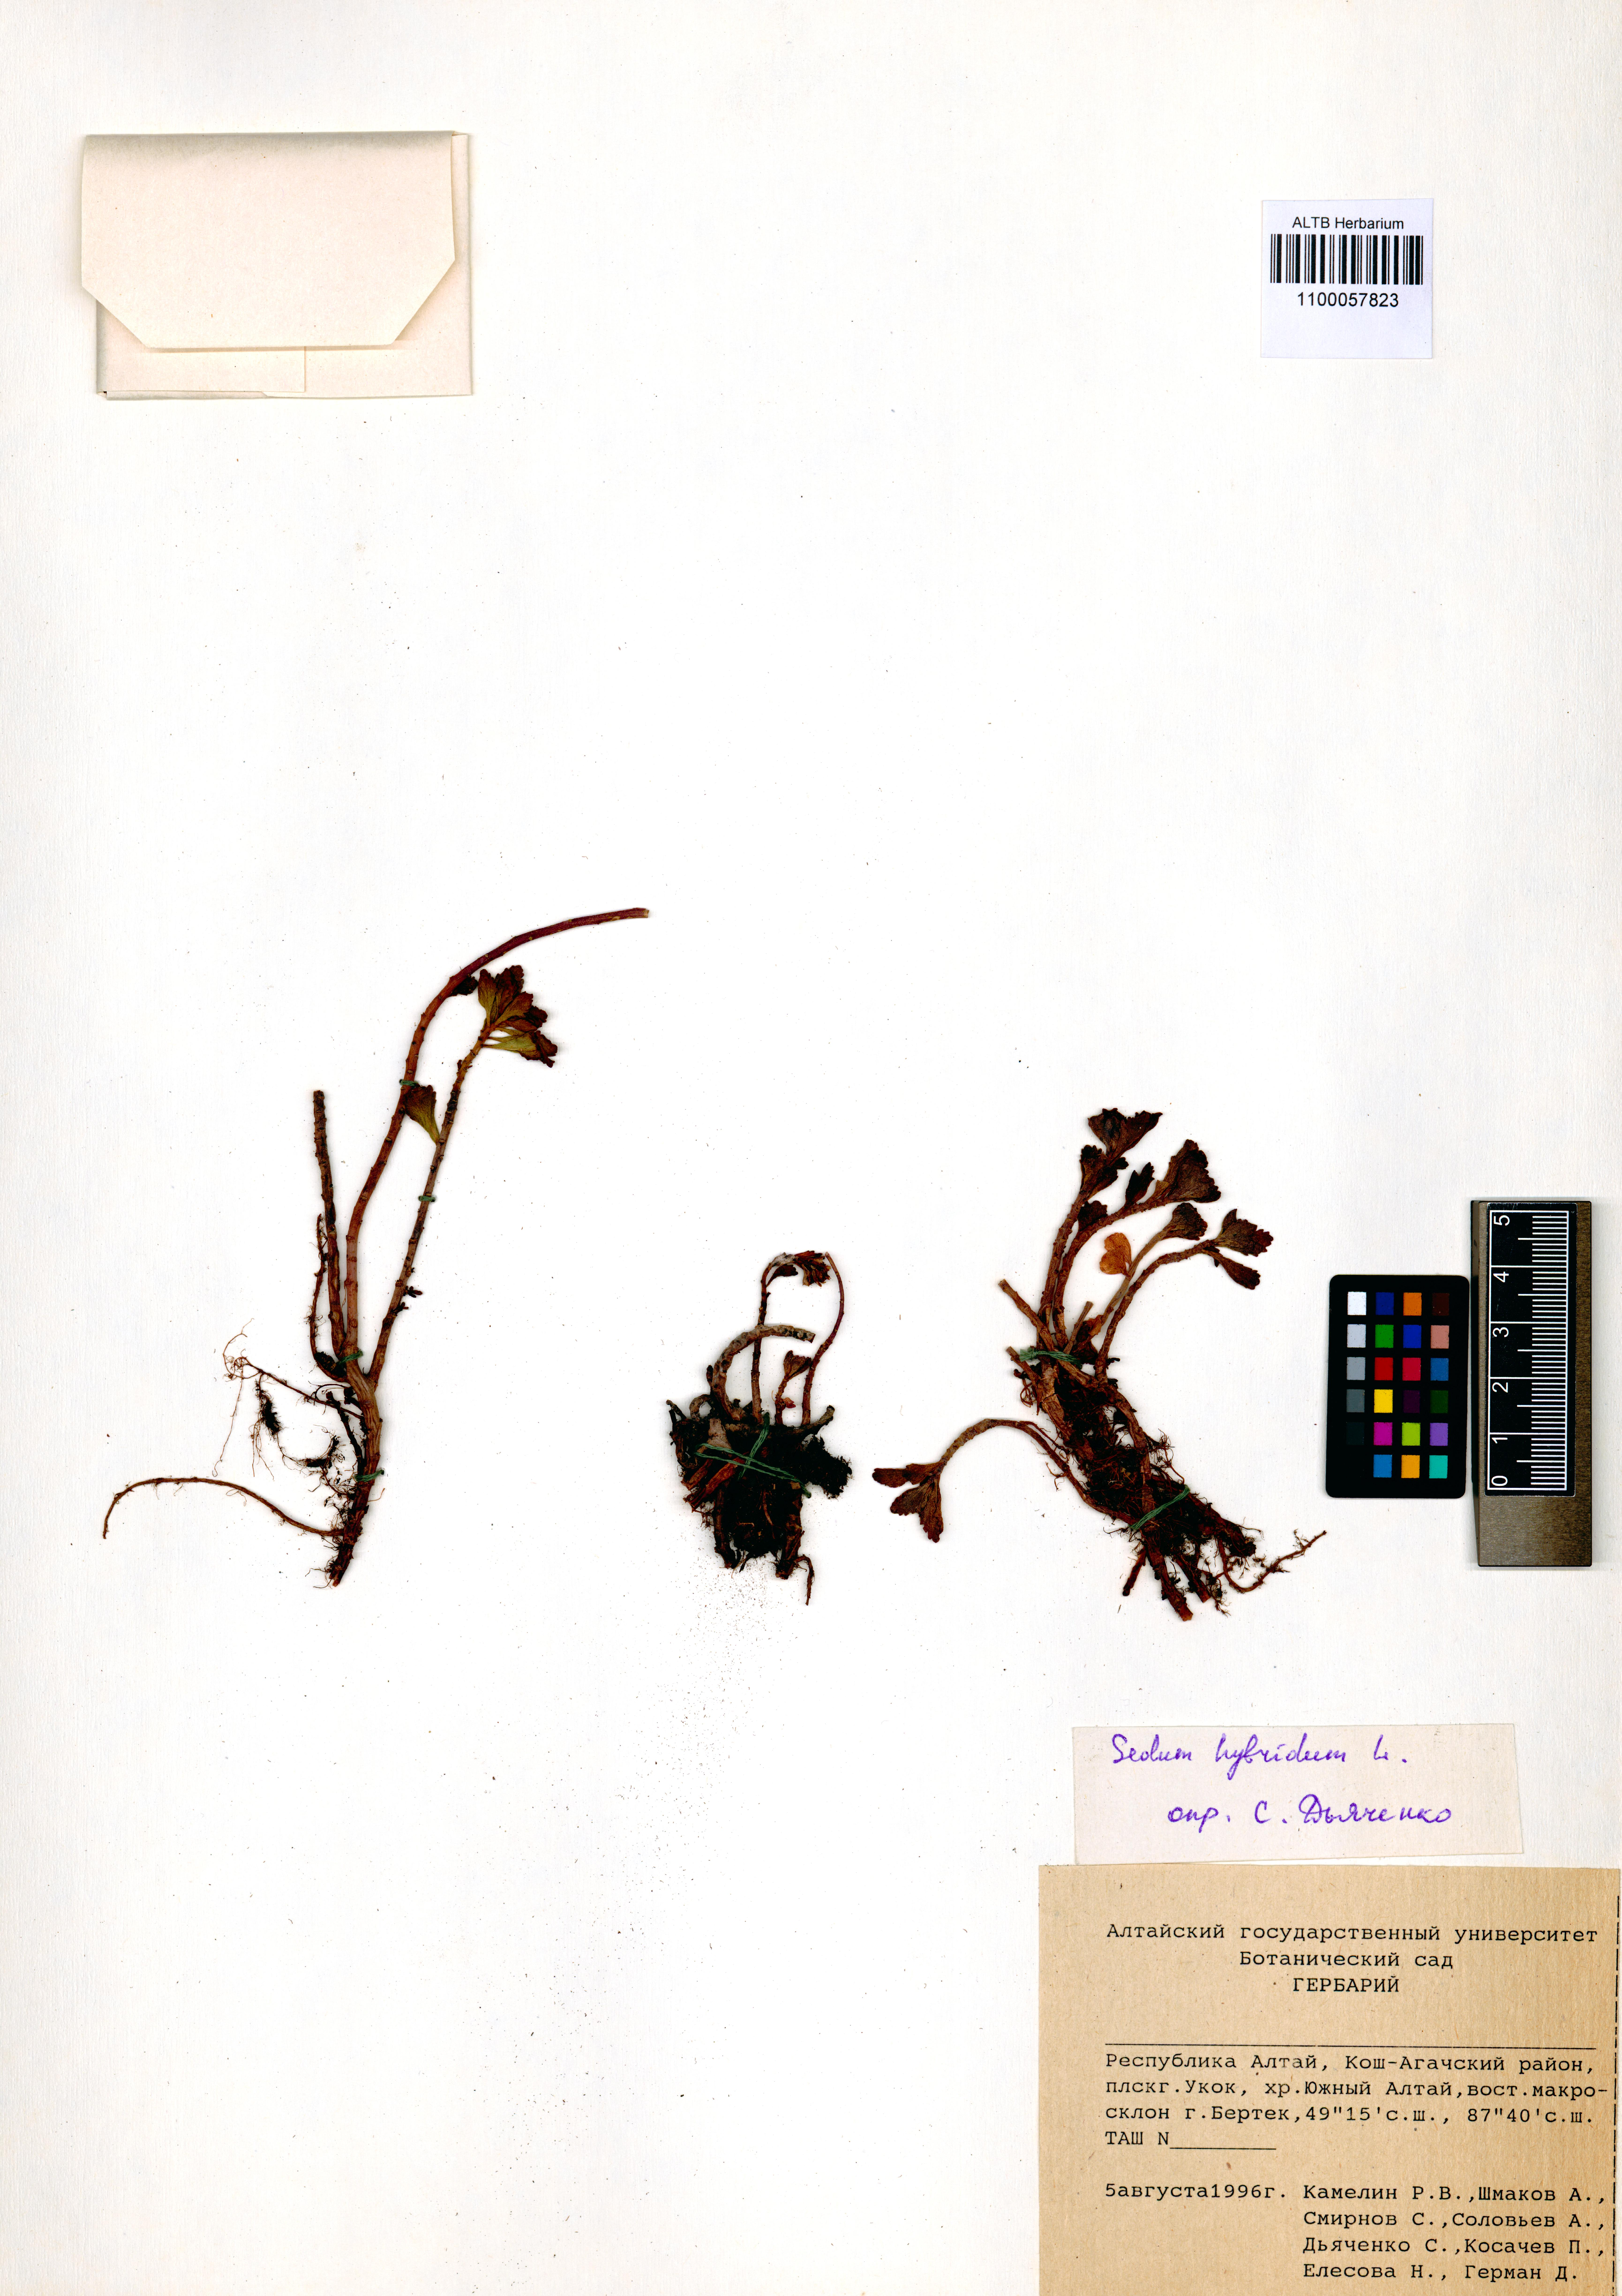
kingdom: Plantae
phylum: Tracheophyta
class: Magnoliopsida
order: Saxifragales
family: Crassulaceae
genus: Phedimus
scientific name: Phedimus hybridus
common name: Hybrid stonecrop
